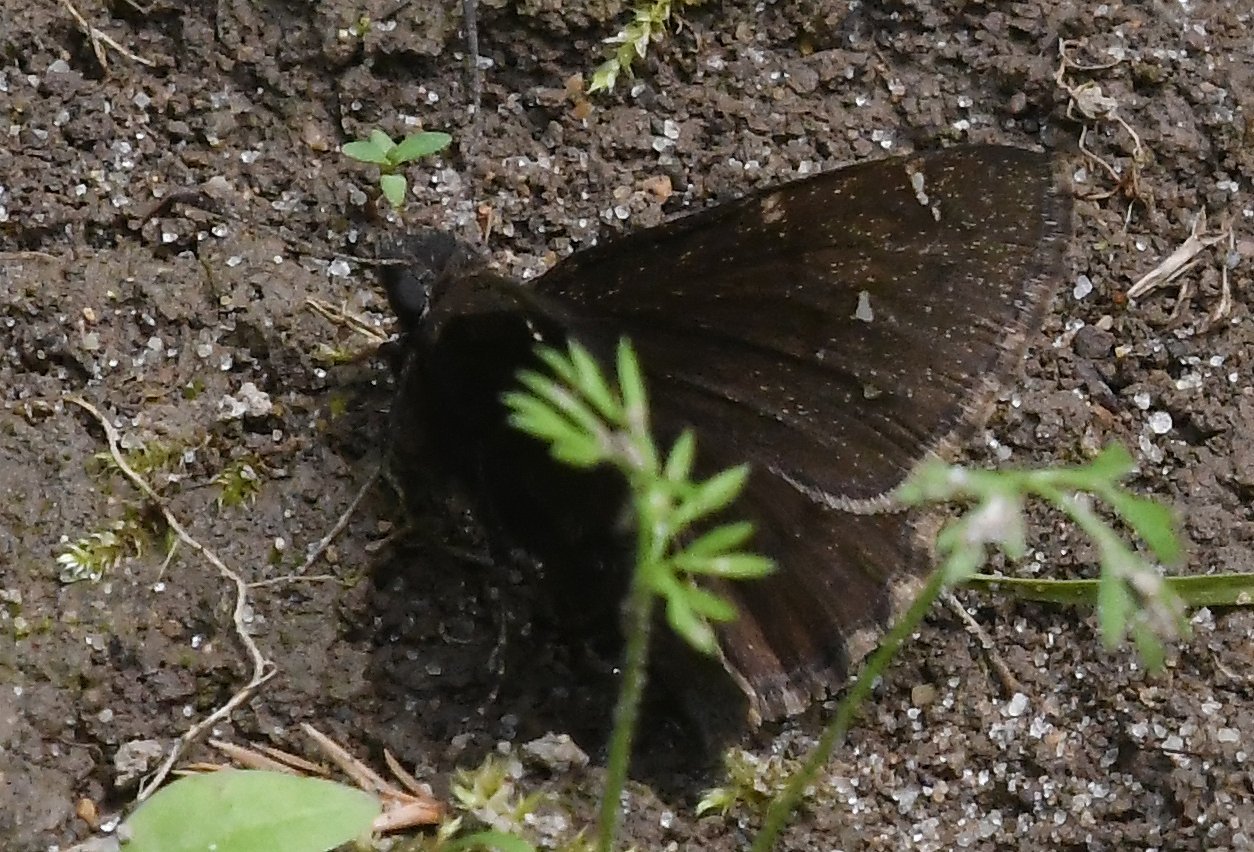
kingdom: Animalia
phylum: Arthropoda
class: Insecta
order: Lepidoptera
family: Hesperiidae
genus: Autochton
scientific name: Autochton
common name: Northern Cloudywing
